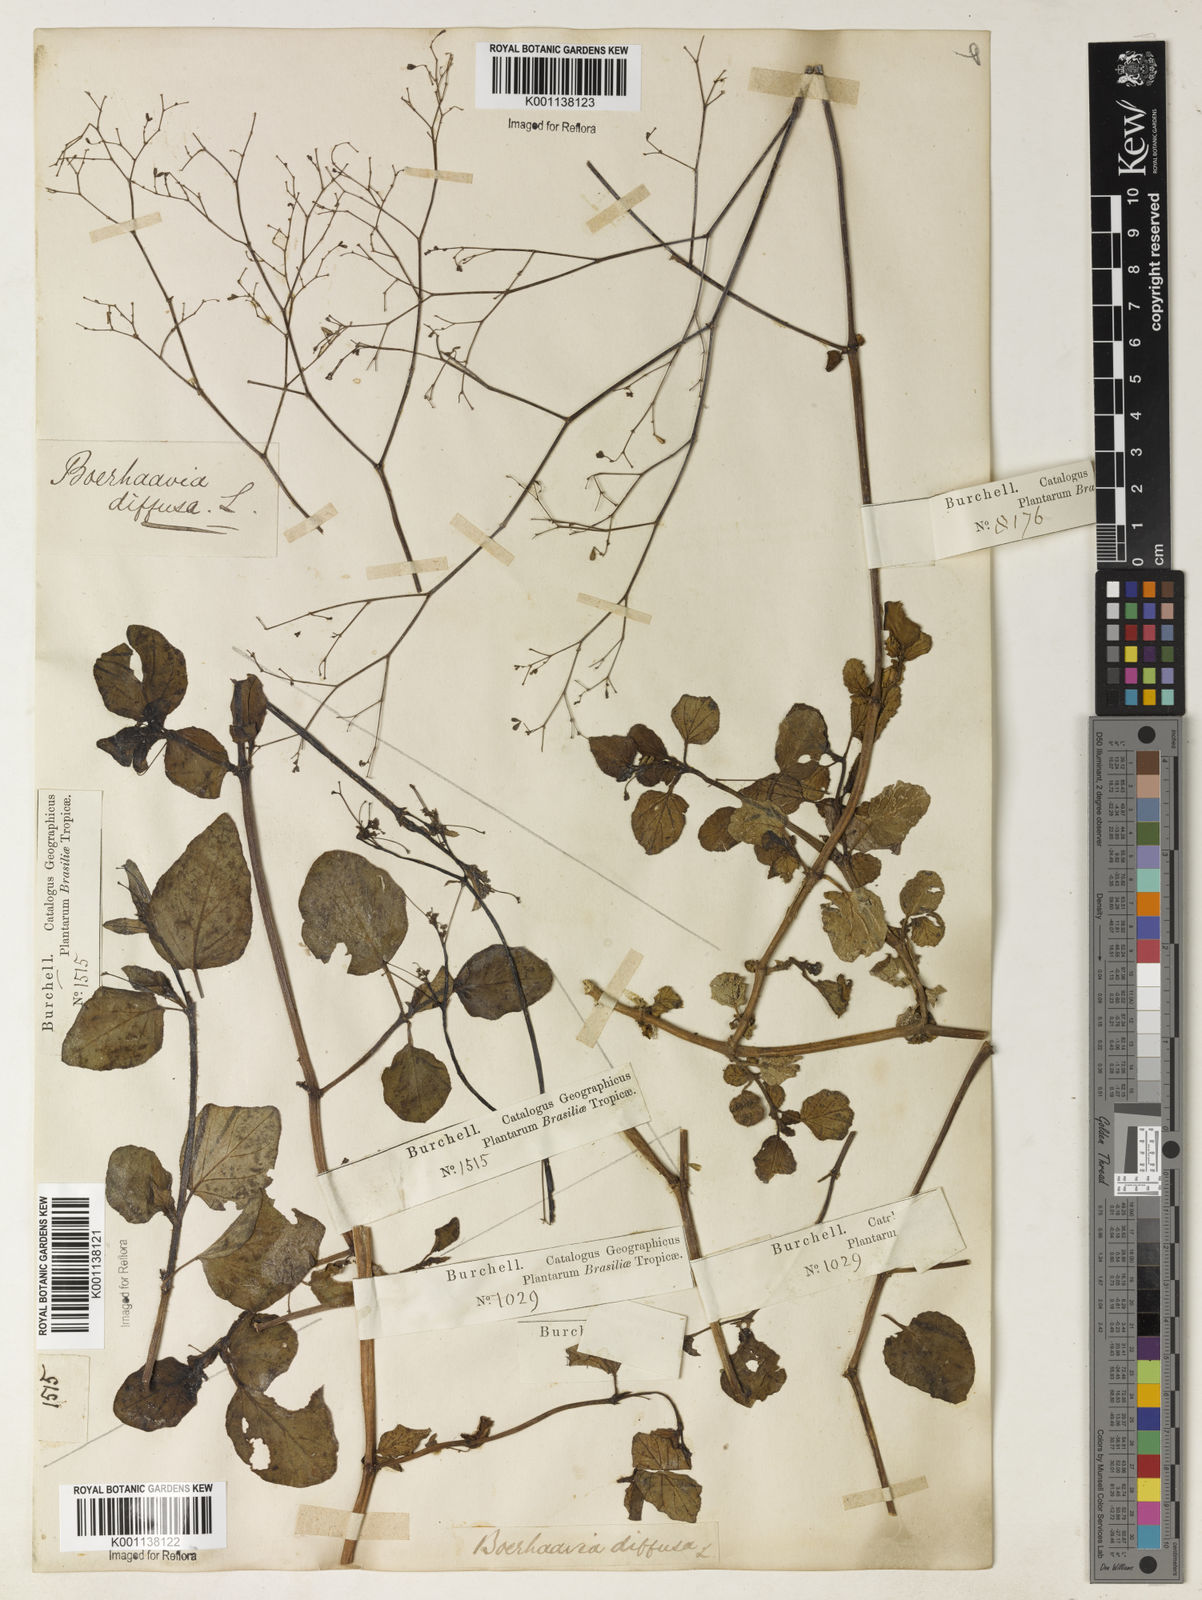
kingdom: Plantae
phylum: Tracheophyta
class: Magnoliopsida
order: Caryophyllales
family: Nyctaginaceae
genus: Boerhavia
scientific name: Boerhavia diffusa
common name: Red spiderling
